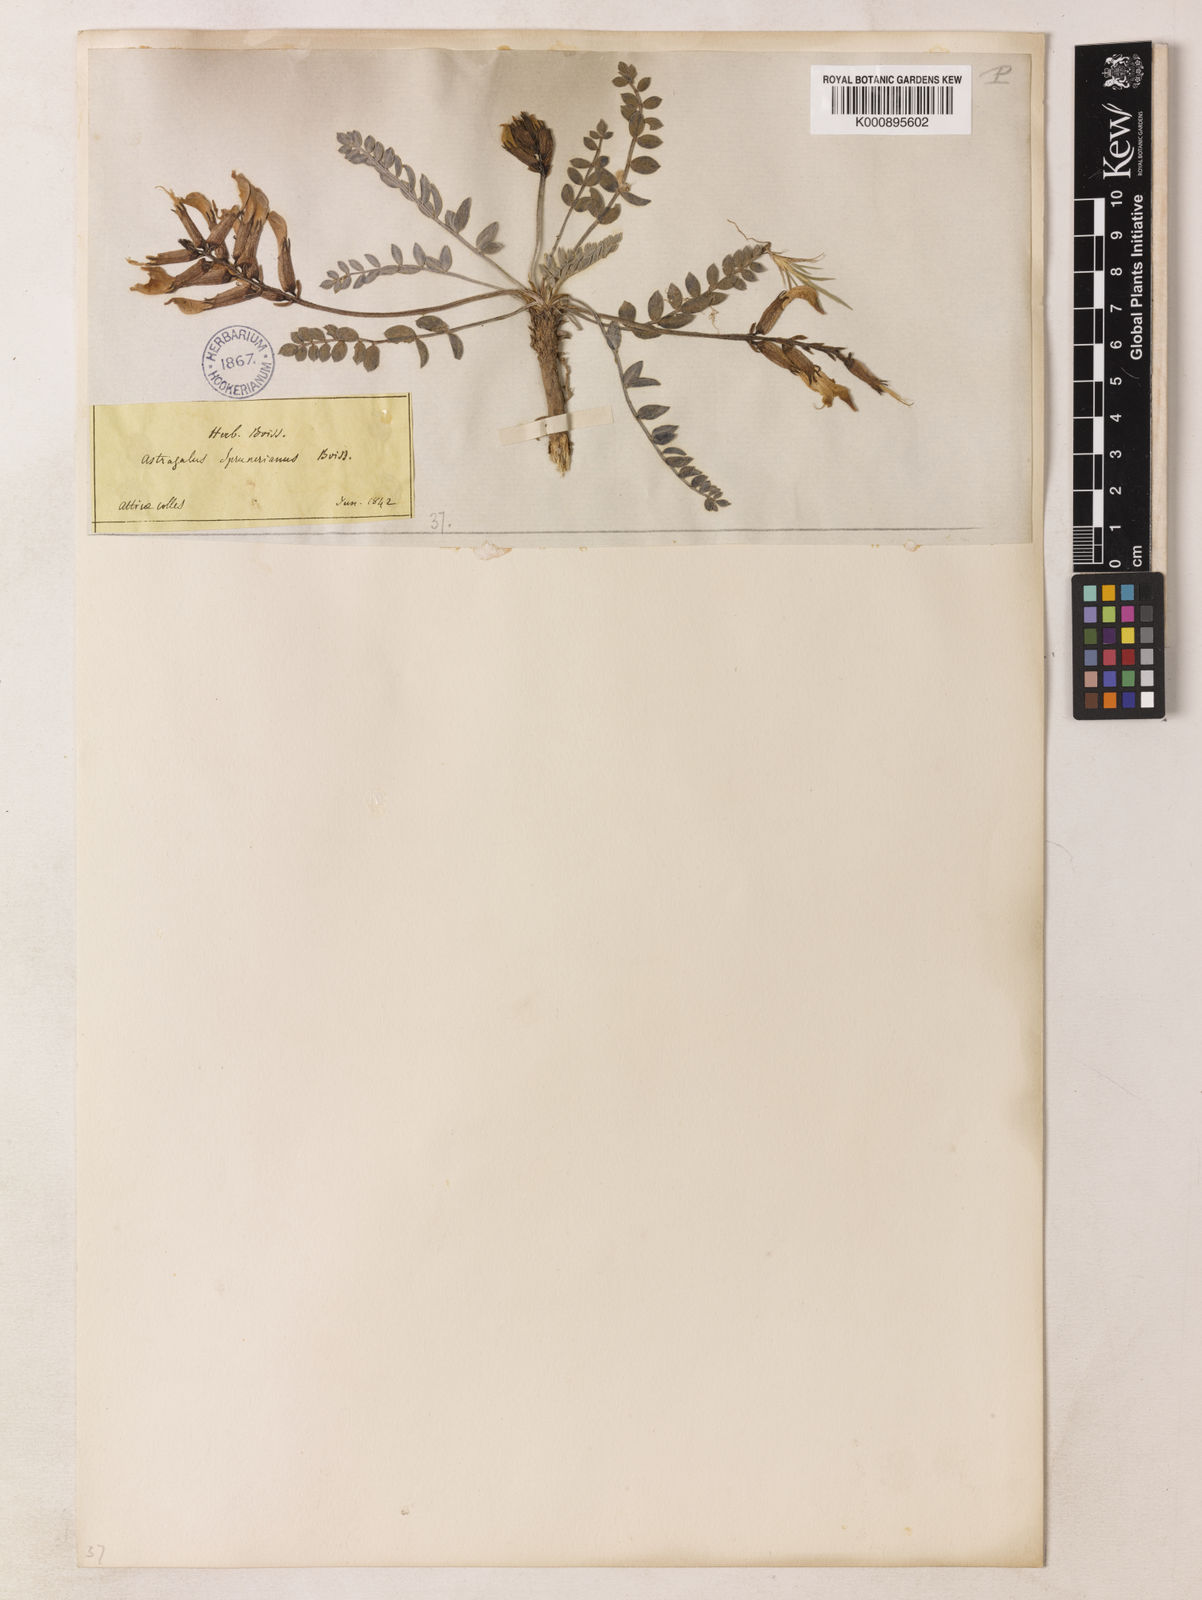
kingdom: Plantae
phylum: Tracheophyta
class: Magnoliopsida
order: Fabales
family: Fabaceae
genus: Astragalus
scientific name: Astragalus spruneri
